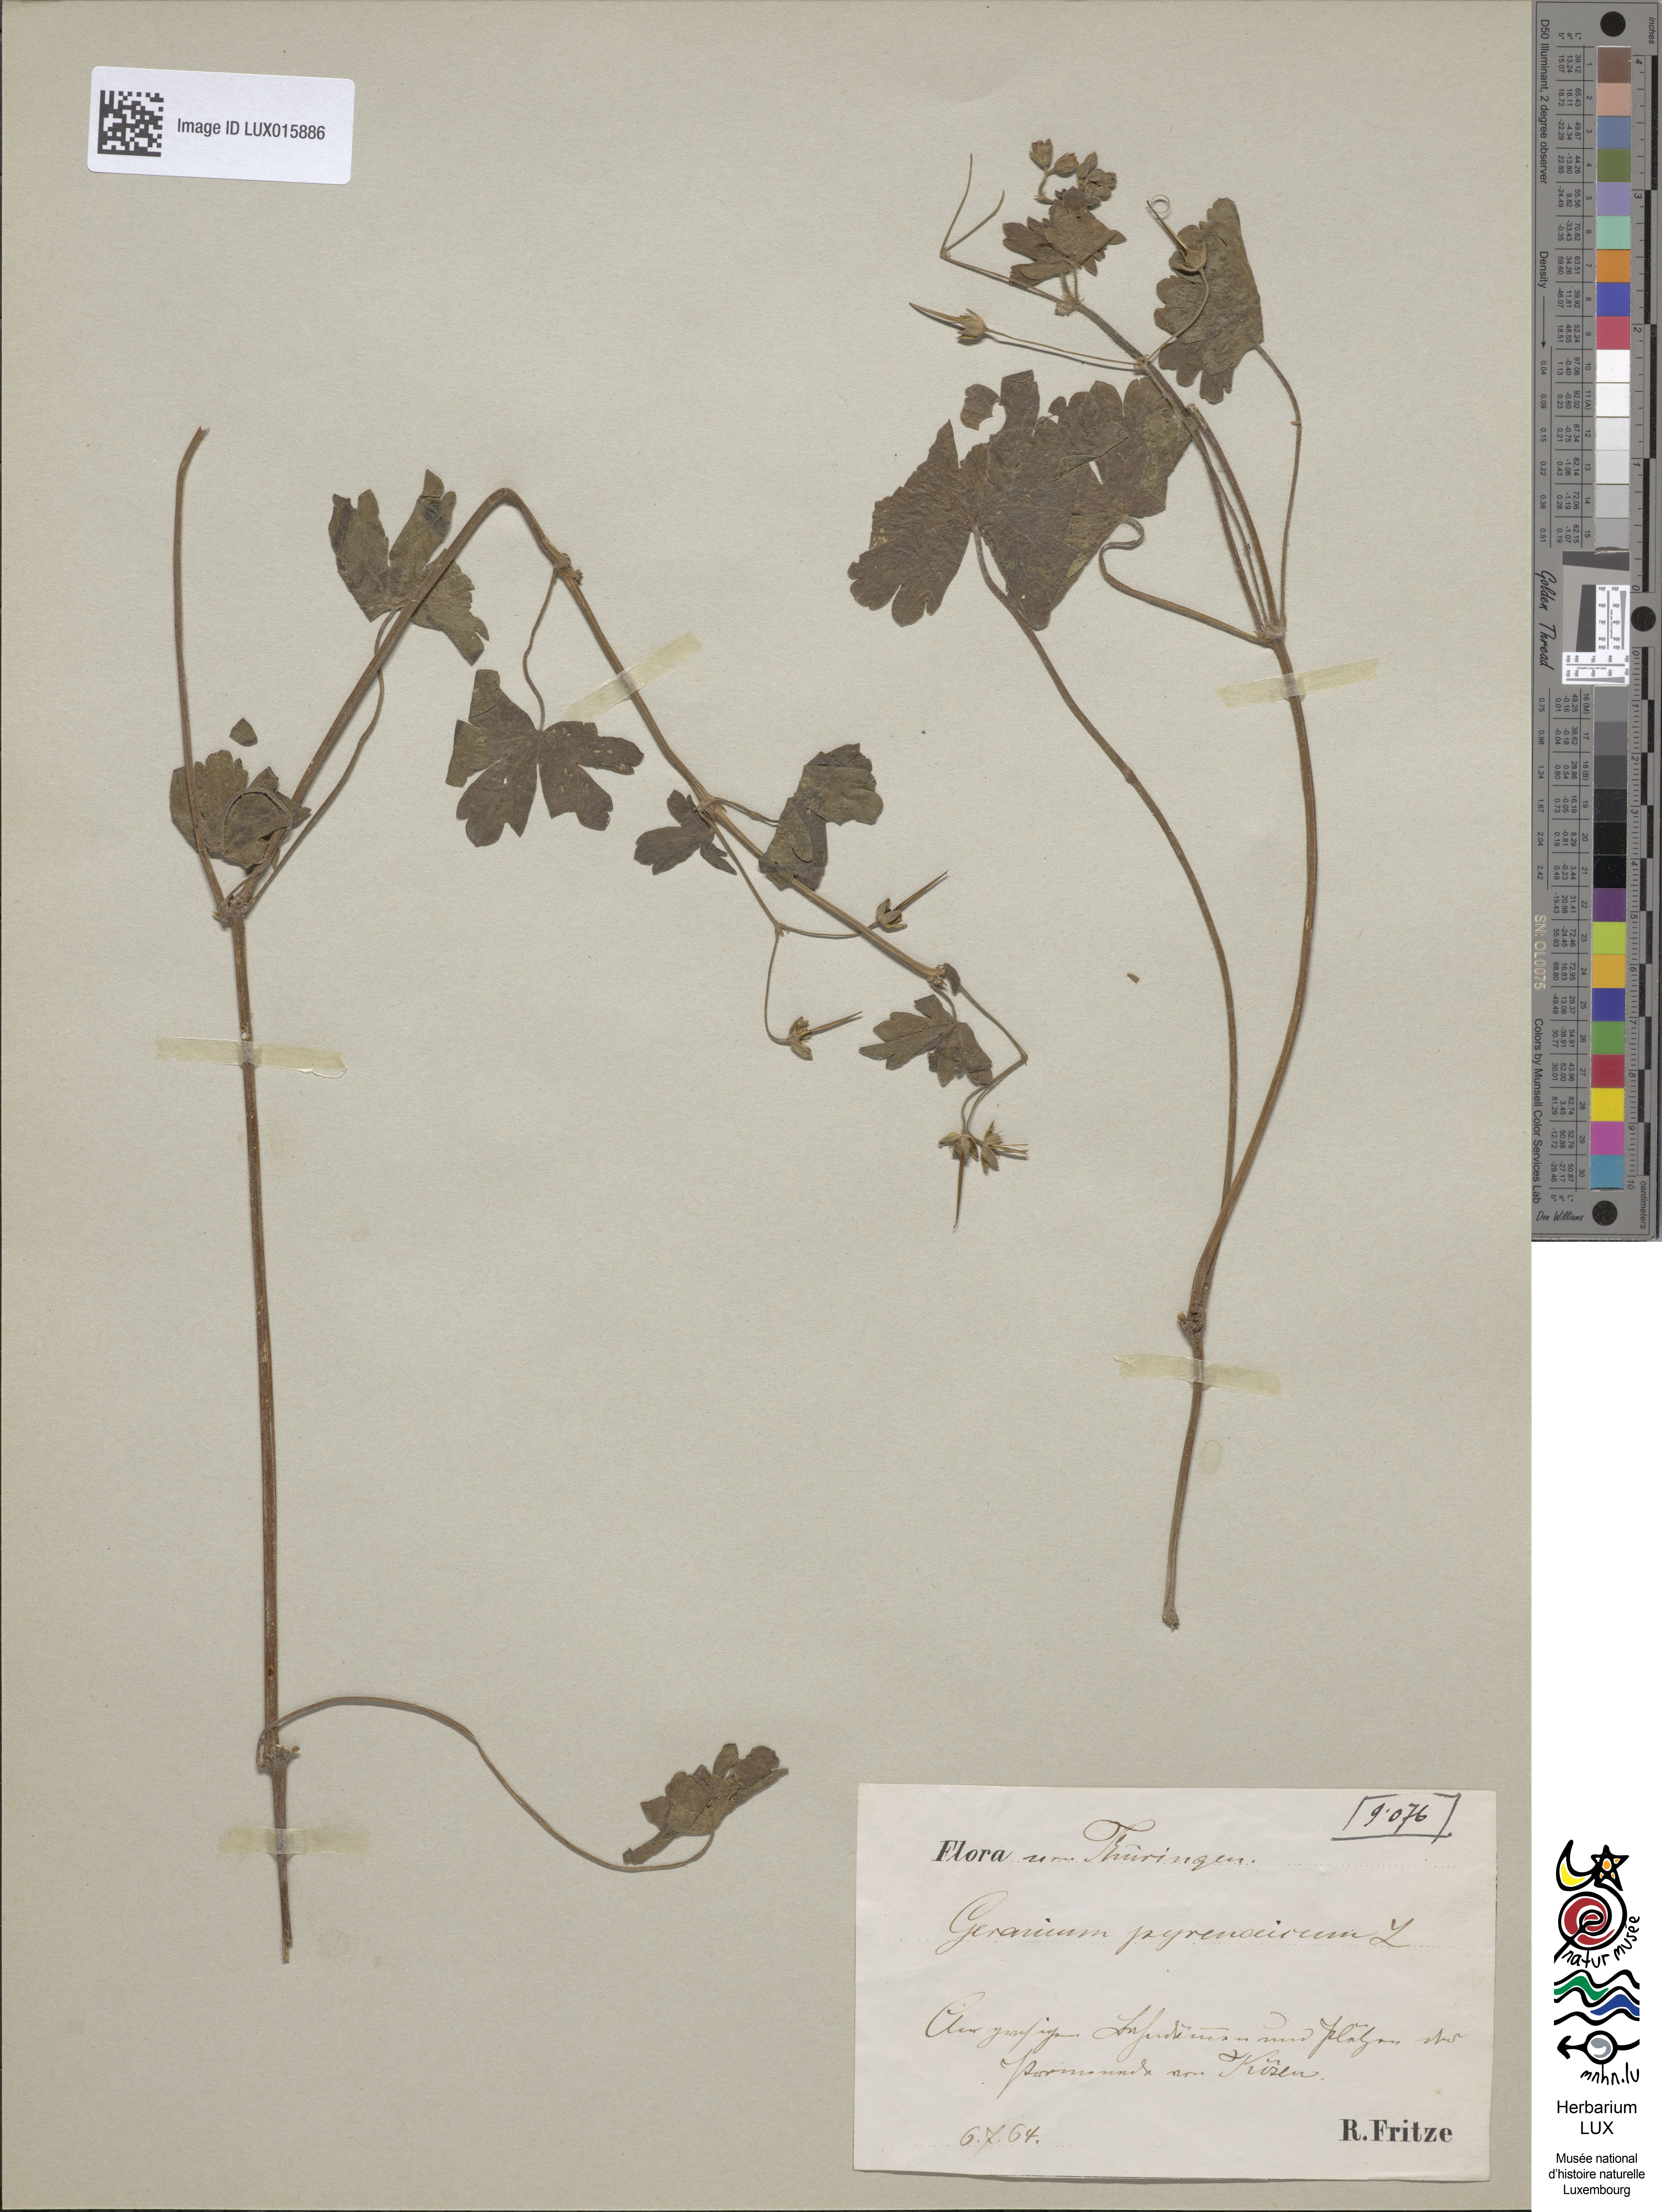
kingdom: Plantae
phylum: Tracheophyta
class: Magnoliopsida
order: Geraniales
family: Geraniaceae
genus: Geranium
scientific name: Geranium pyrenaicum
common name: Hedgerow crane's-bill
